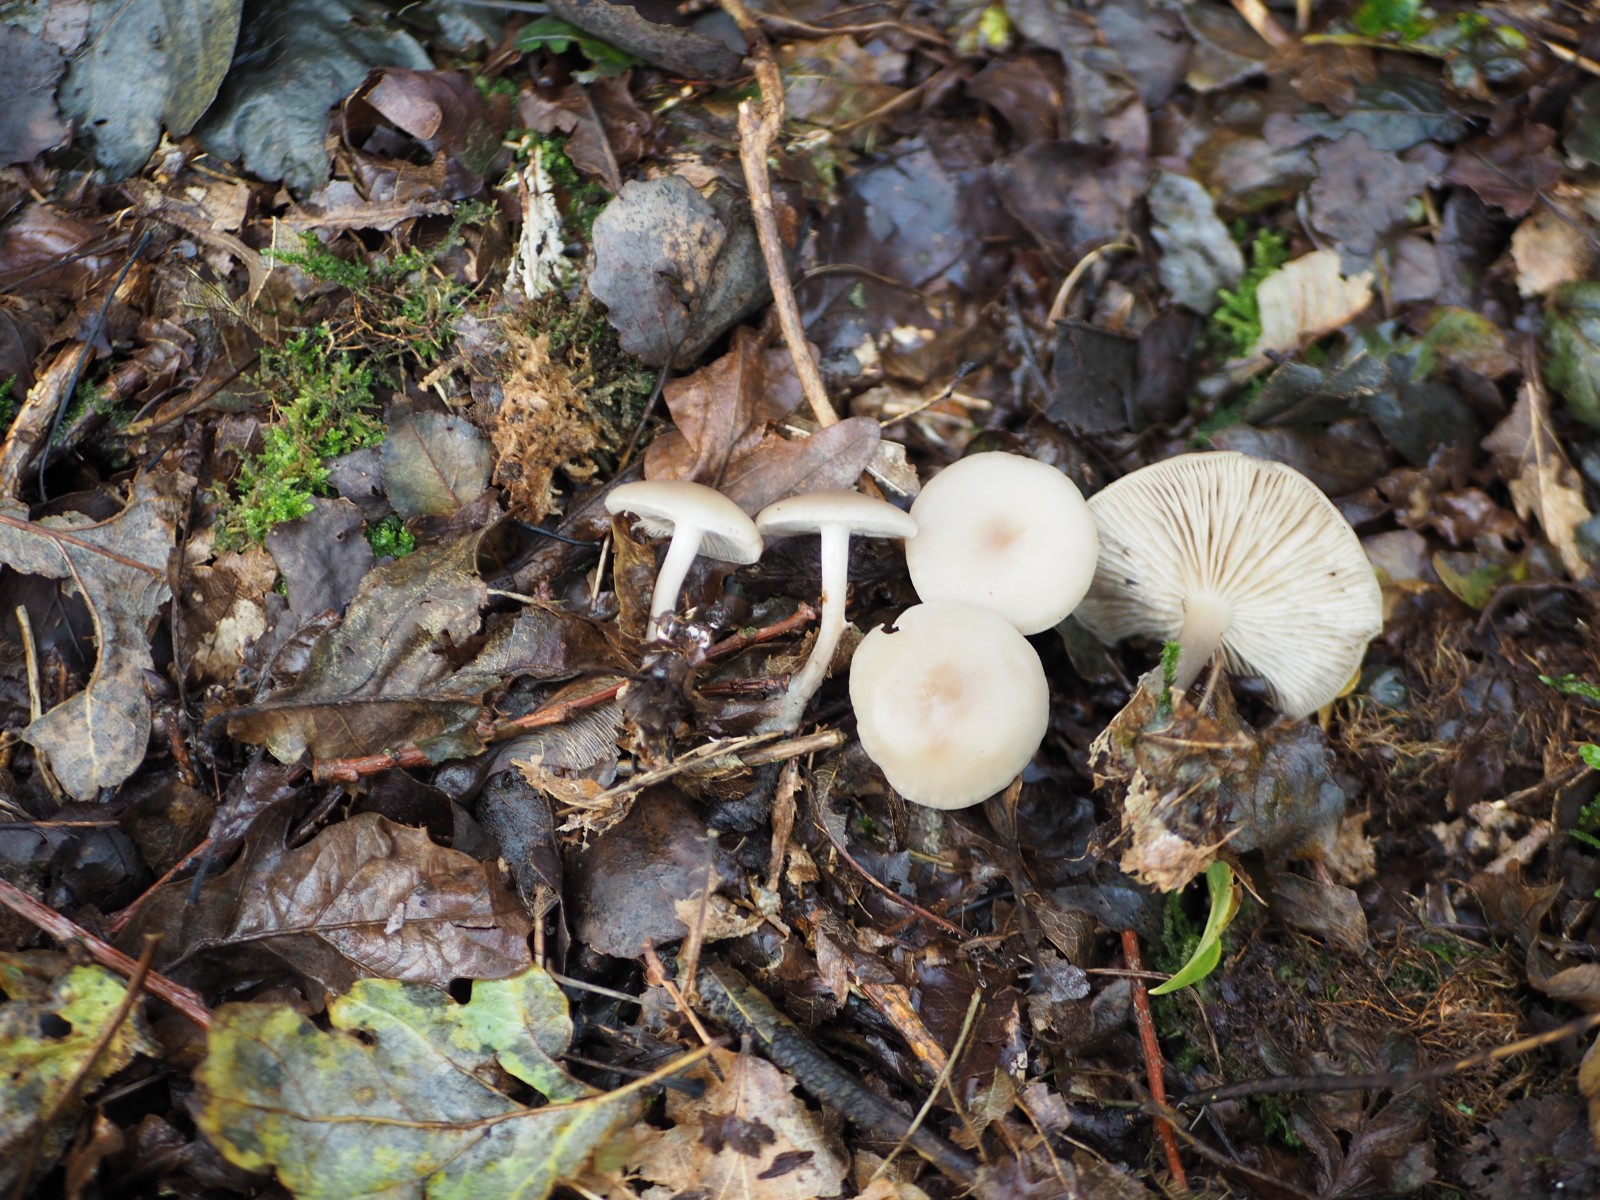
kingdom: Fungi
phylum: Basidiomycota
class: Agaricomycetes
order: Agaricales
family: Tricholomataceae
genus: Clitocybe
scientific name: Clitocybe metachroa
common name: grå tragthat
